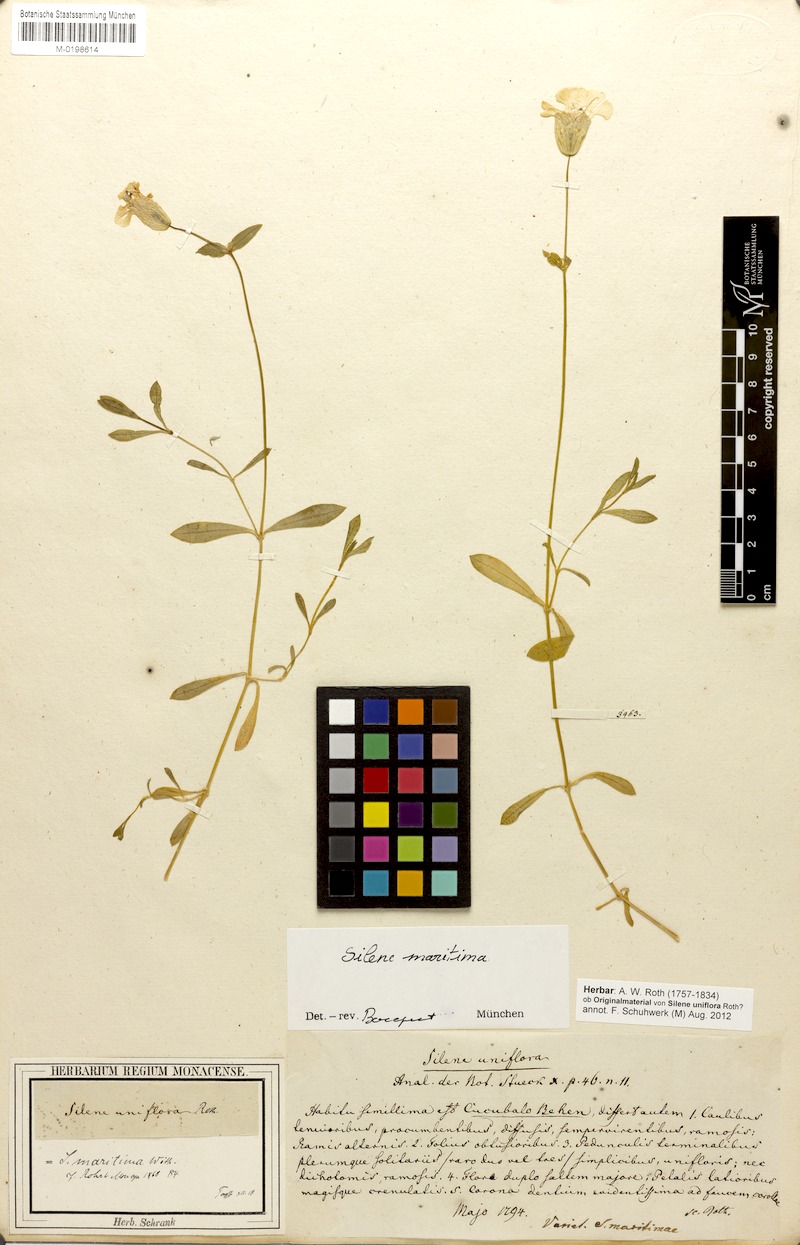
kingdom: Plantae
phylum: Tracheophyta
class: Magnoliopsida
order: Caryophyllales
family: Caryophyllaceae
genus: Silene
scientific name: Silene uniflora
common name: Sea campion
